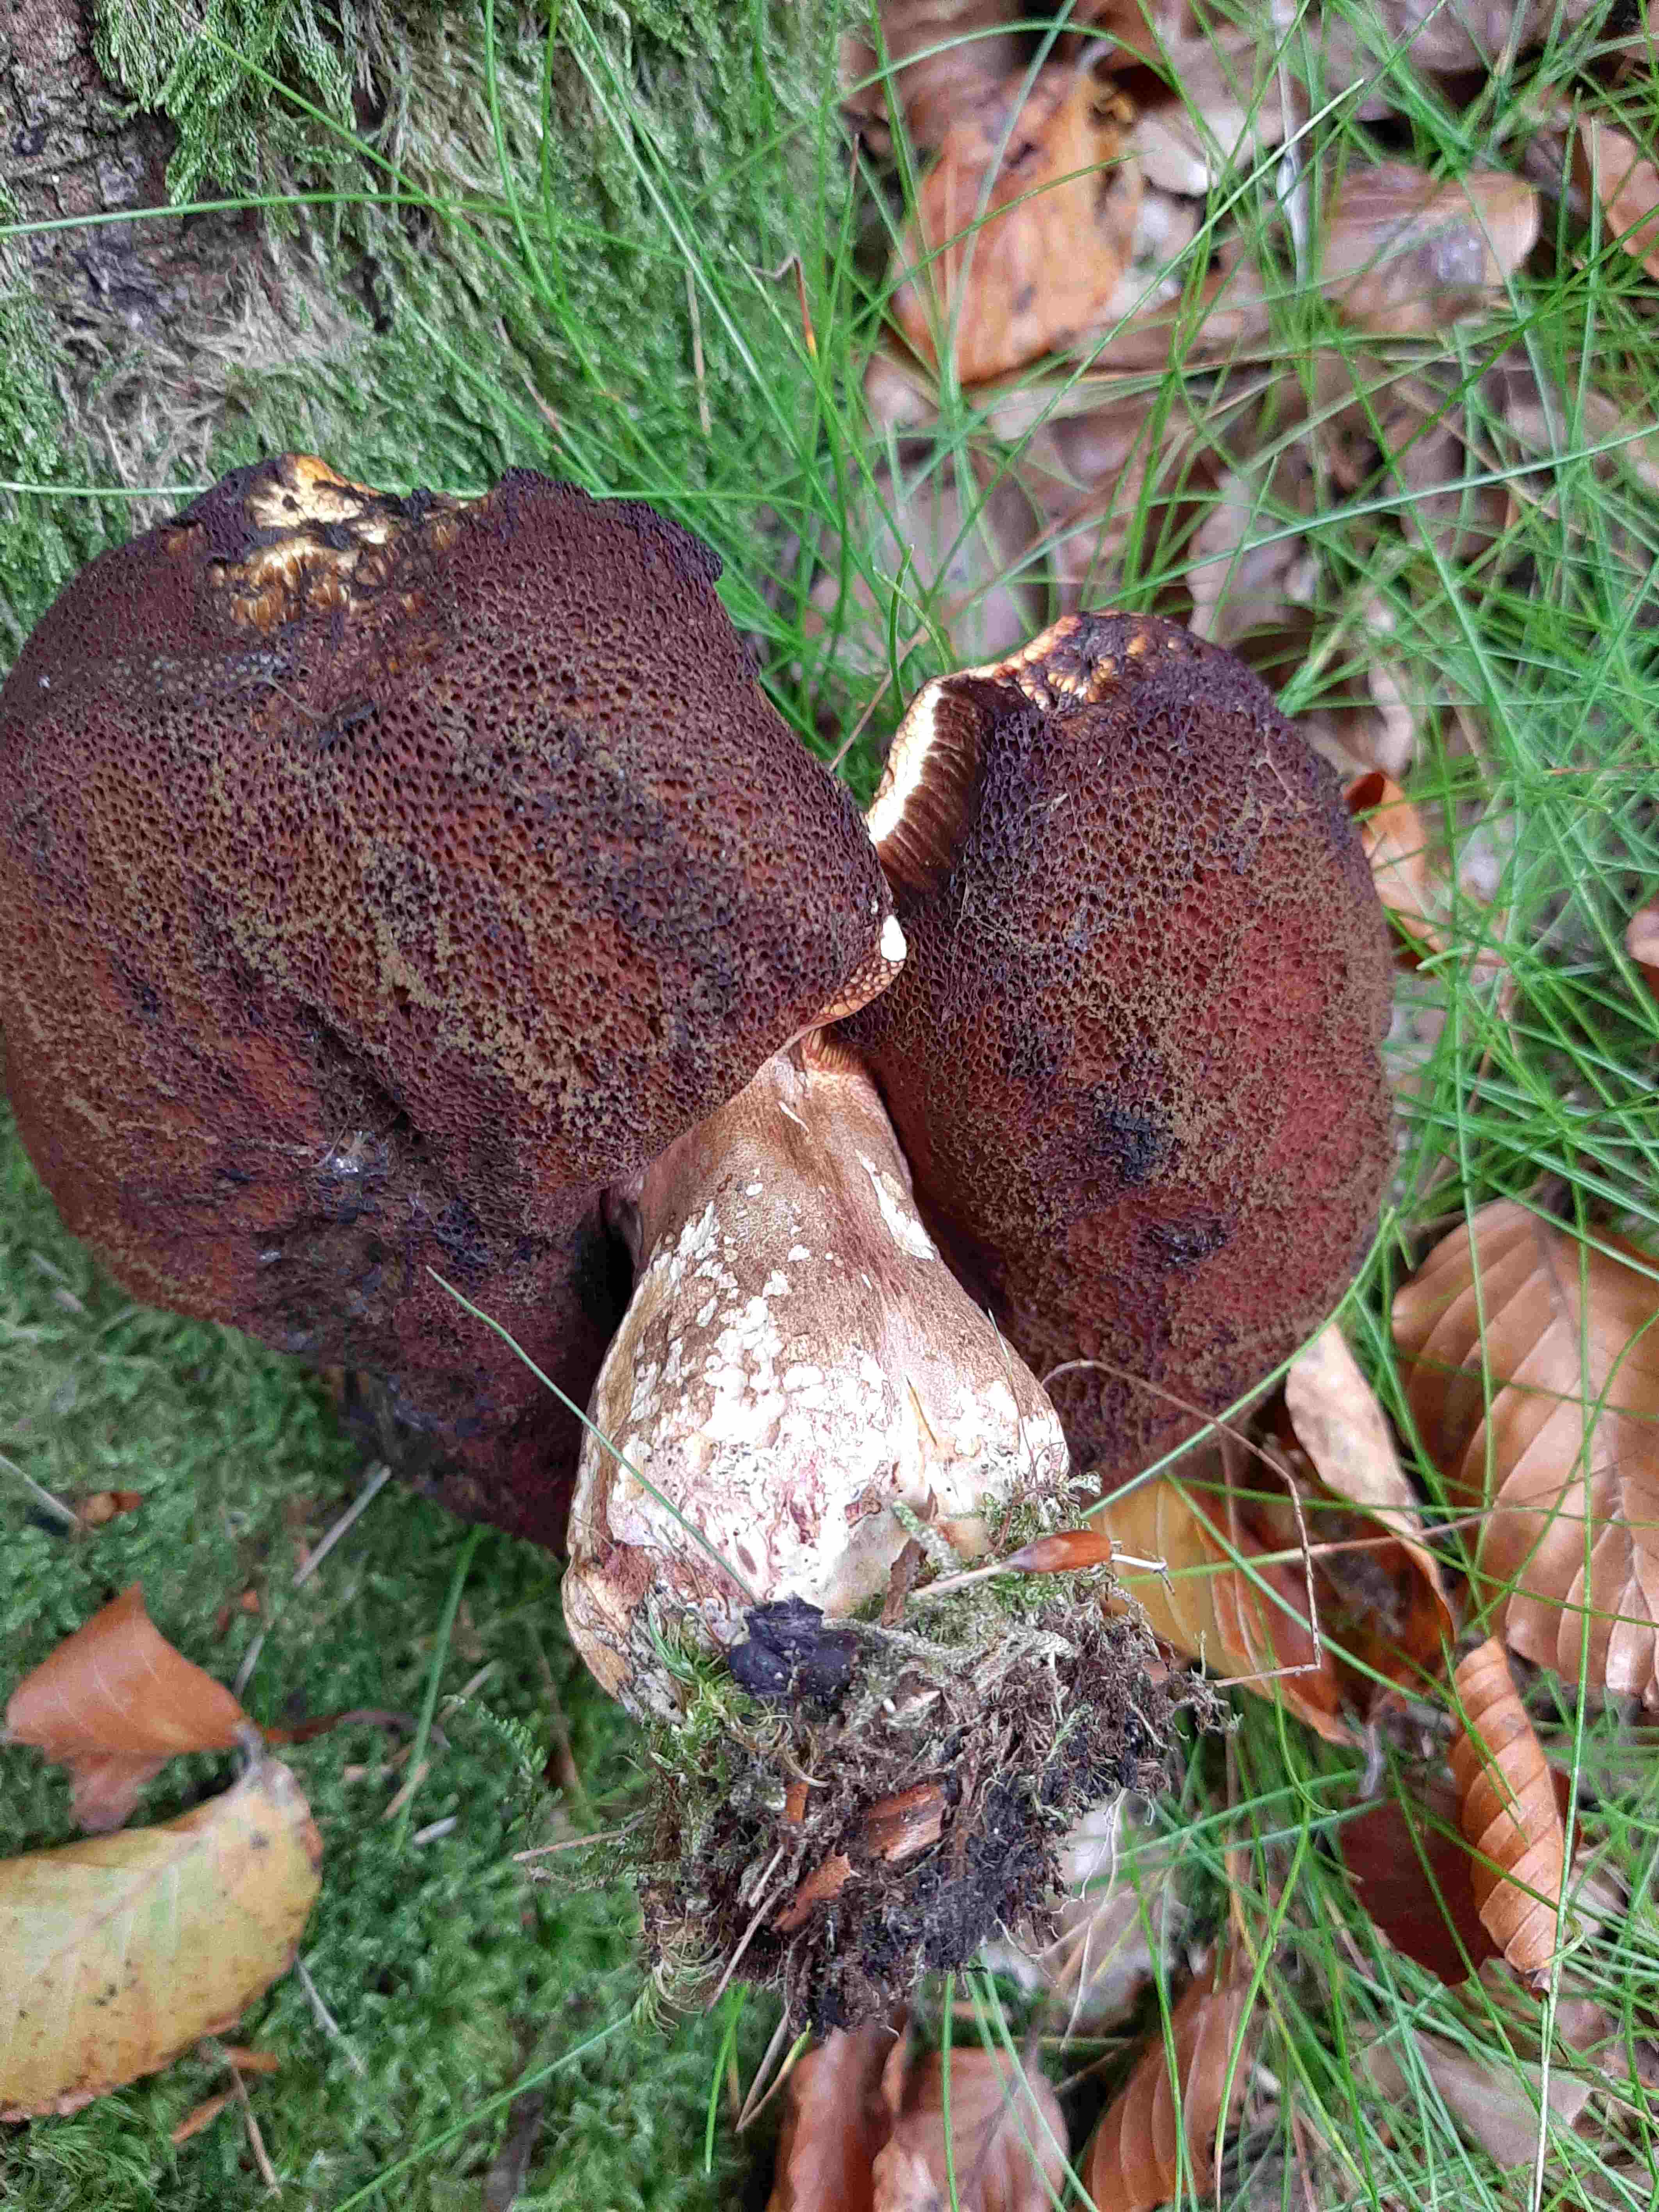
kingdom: Fungi
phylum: Basidiomycota
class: Agaricomycetes
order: Boletales
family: Boletaceae
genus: Neoboletus
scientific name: Neoboletus erythropus
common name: punktstokket indigorørhat
